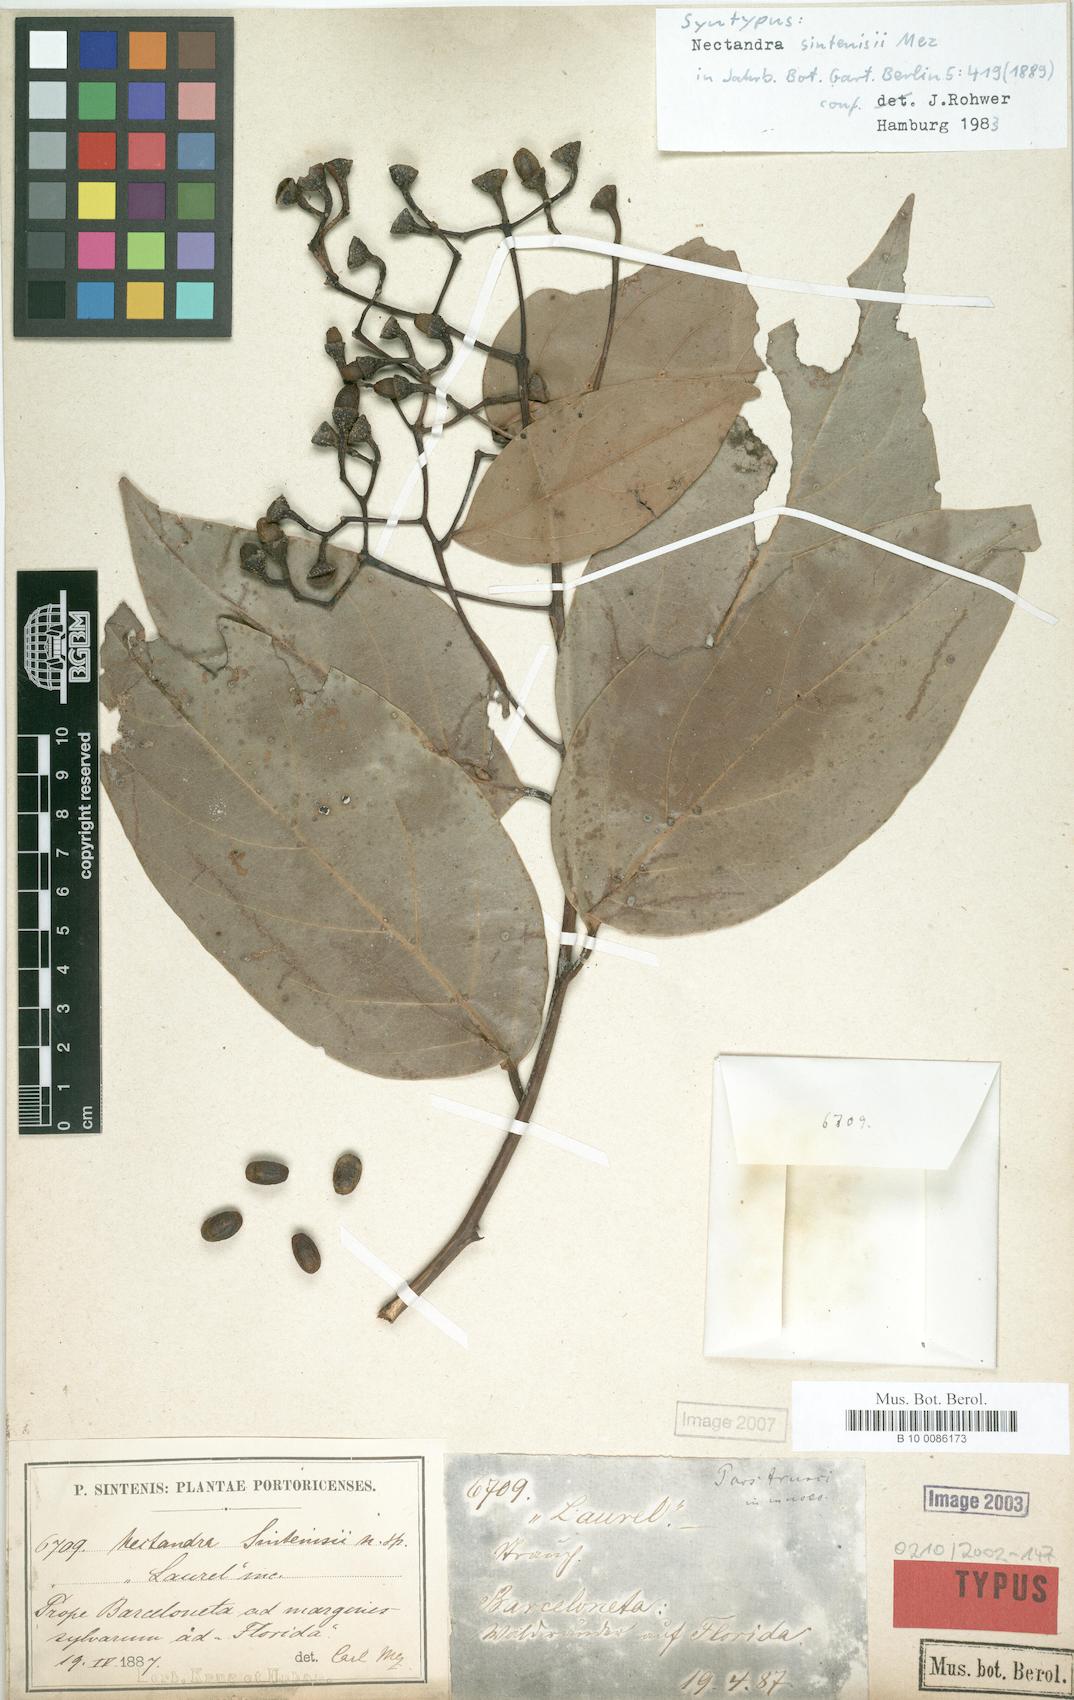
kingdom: Plantae
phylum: Tracheophyta
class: Magnoliopsida
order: Laurales
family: Lauraceae
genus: Nectandra
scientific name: Nectandra turbacensis
